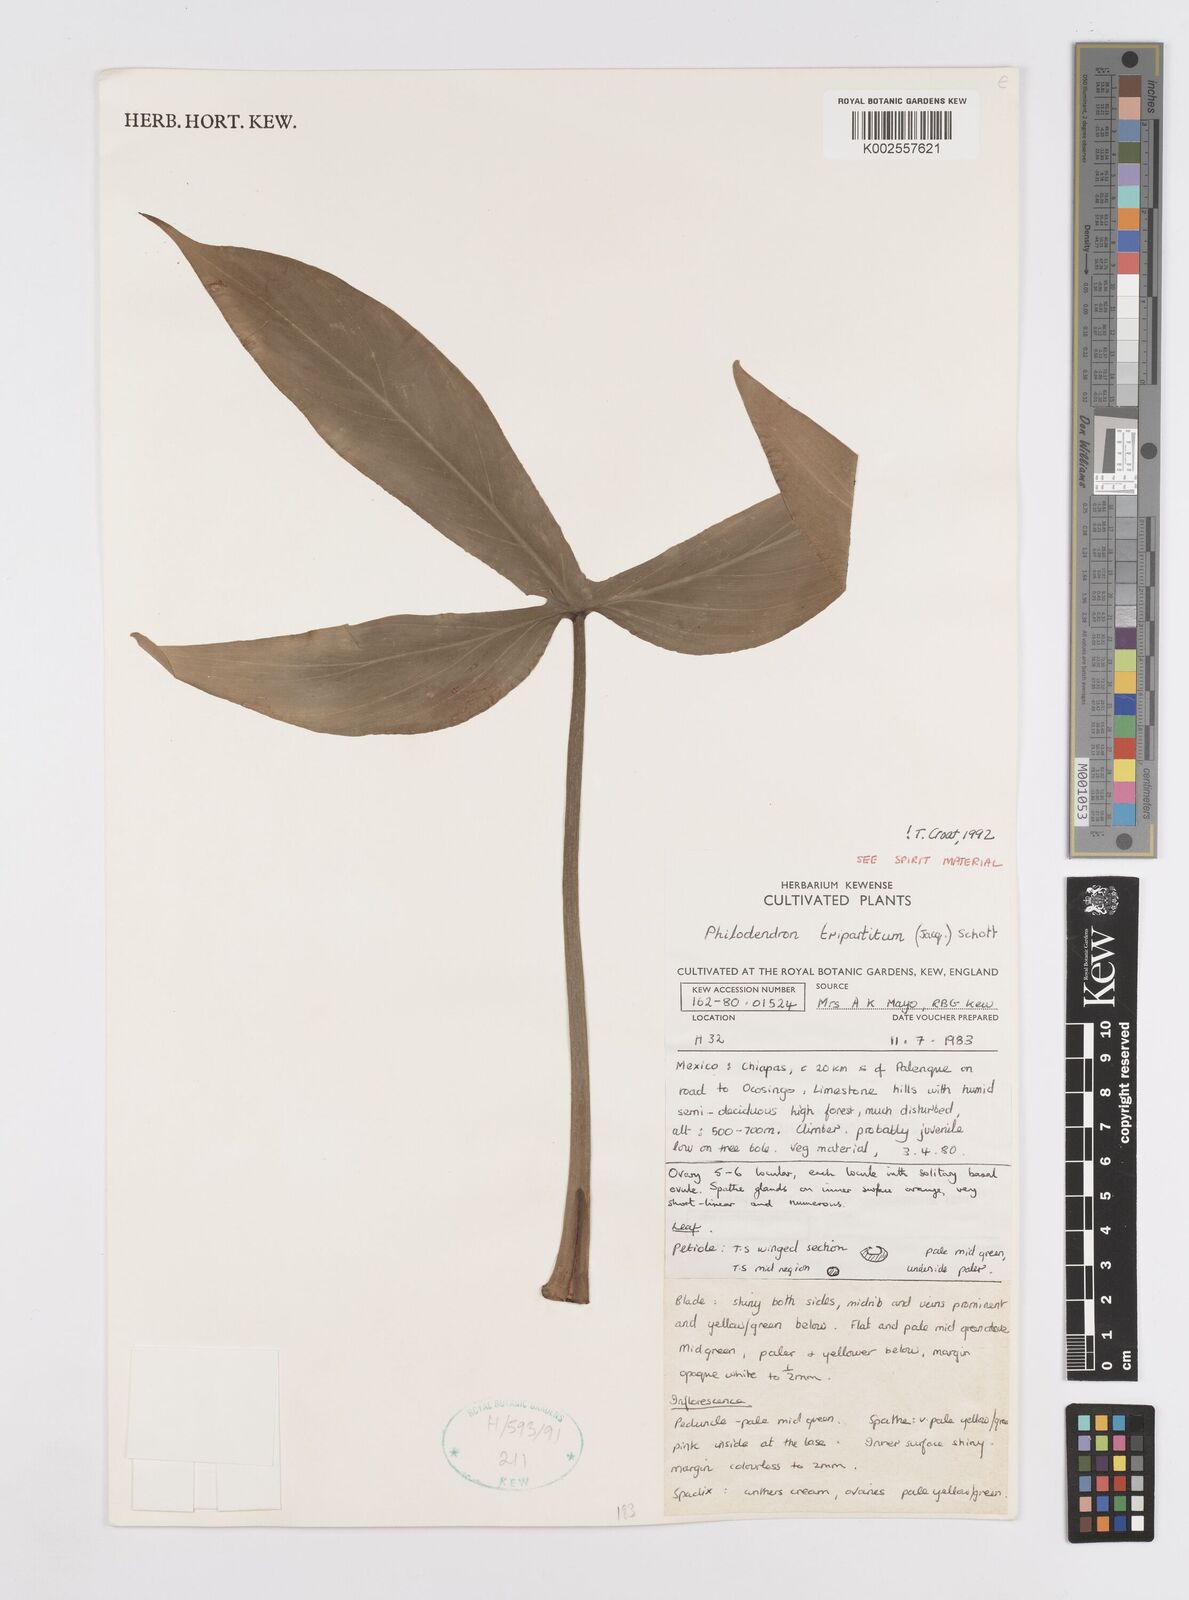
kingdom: Plantae
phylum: Tracheophyta
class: Liliopsida
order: Alismatales
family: Araceae
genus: Philodendron
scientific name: Philodendron tripartitum
